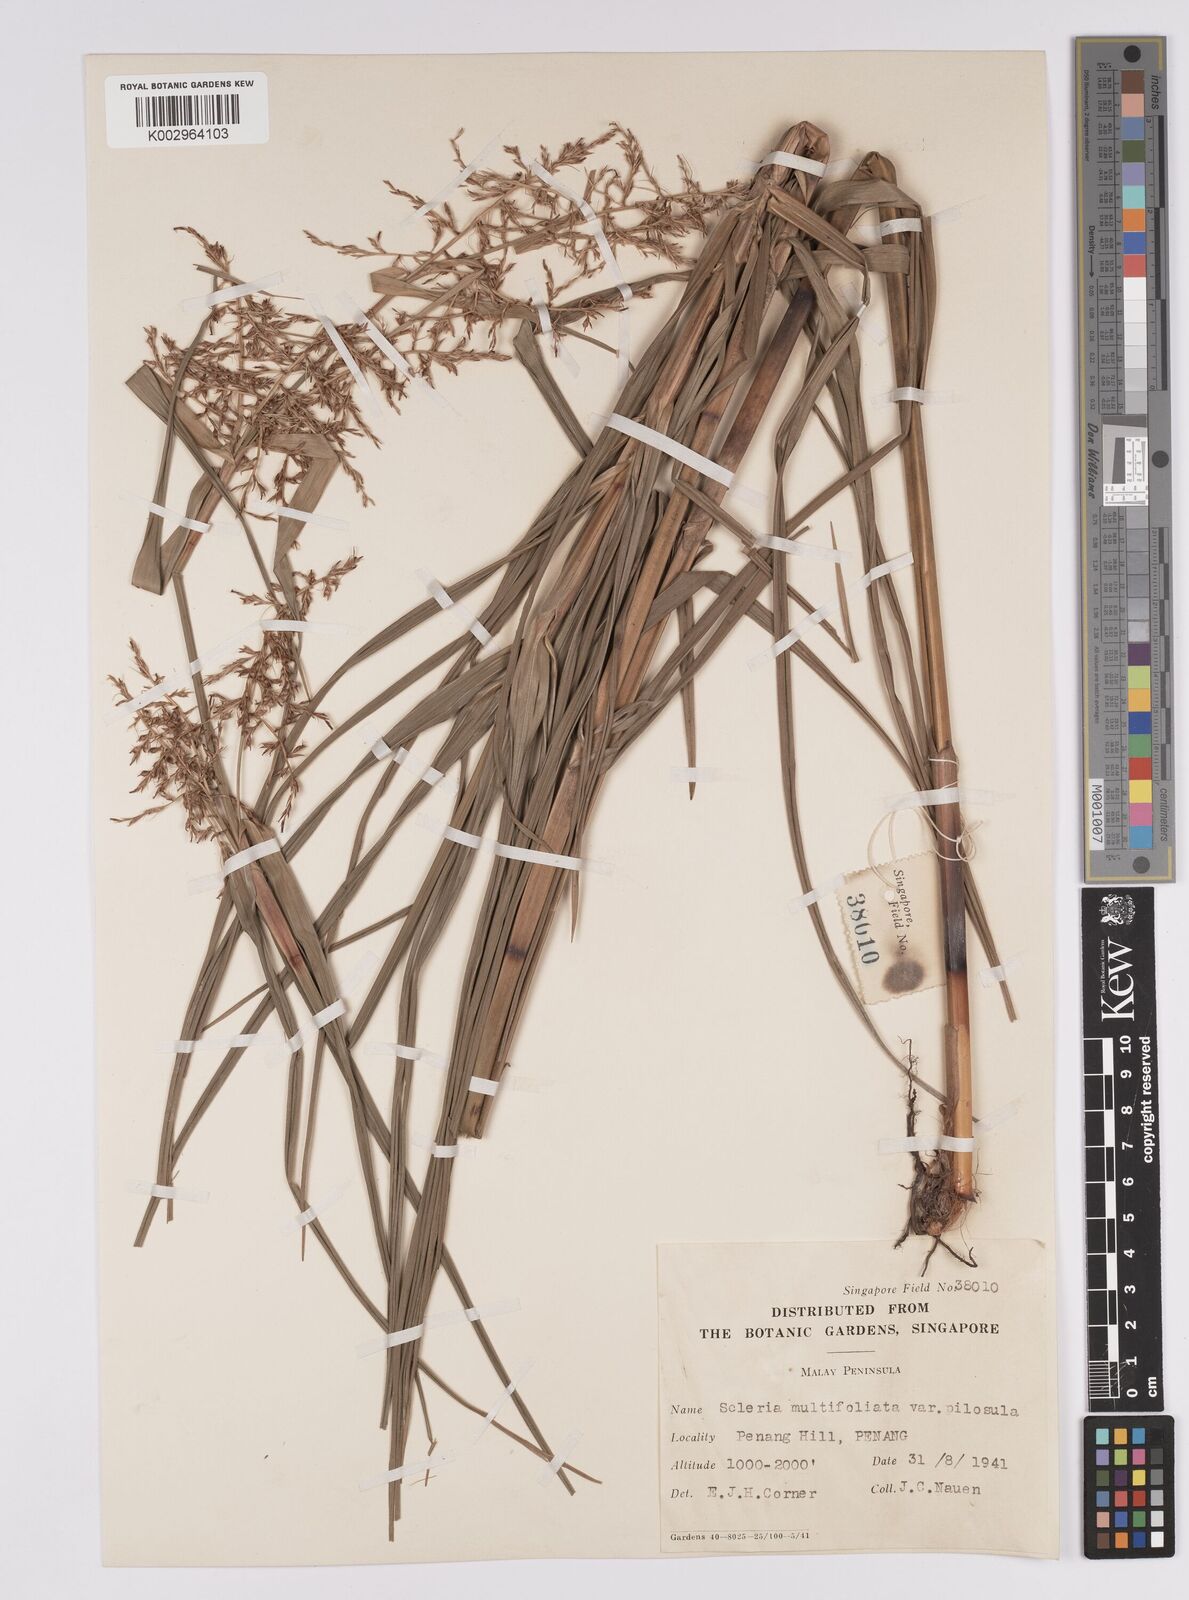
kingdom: Plantae
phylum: Tracheophyta
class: Liliopsida
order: Poales
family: Cyperaceae
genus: Scleria
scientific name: Scleria purpurascens
